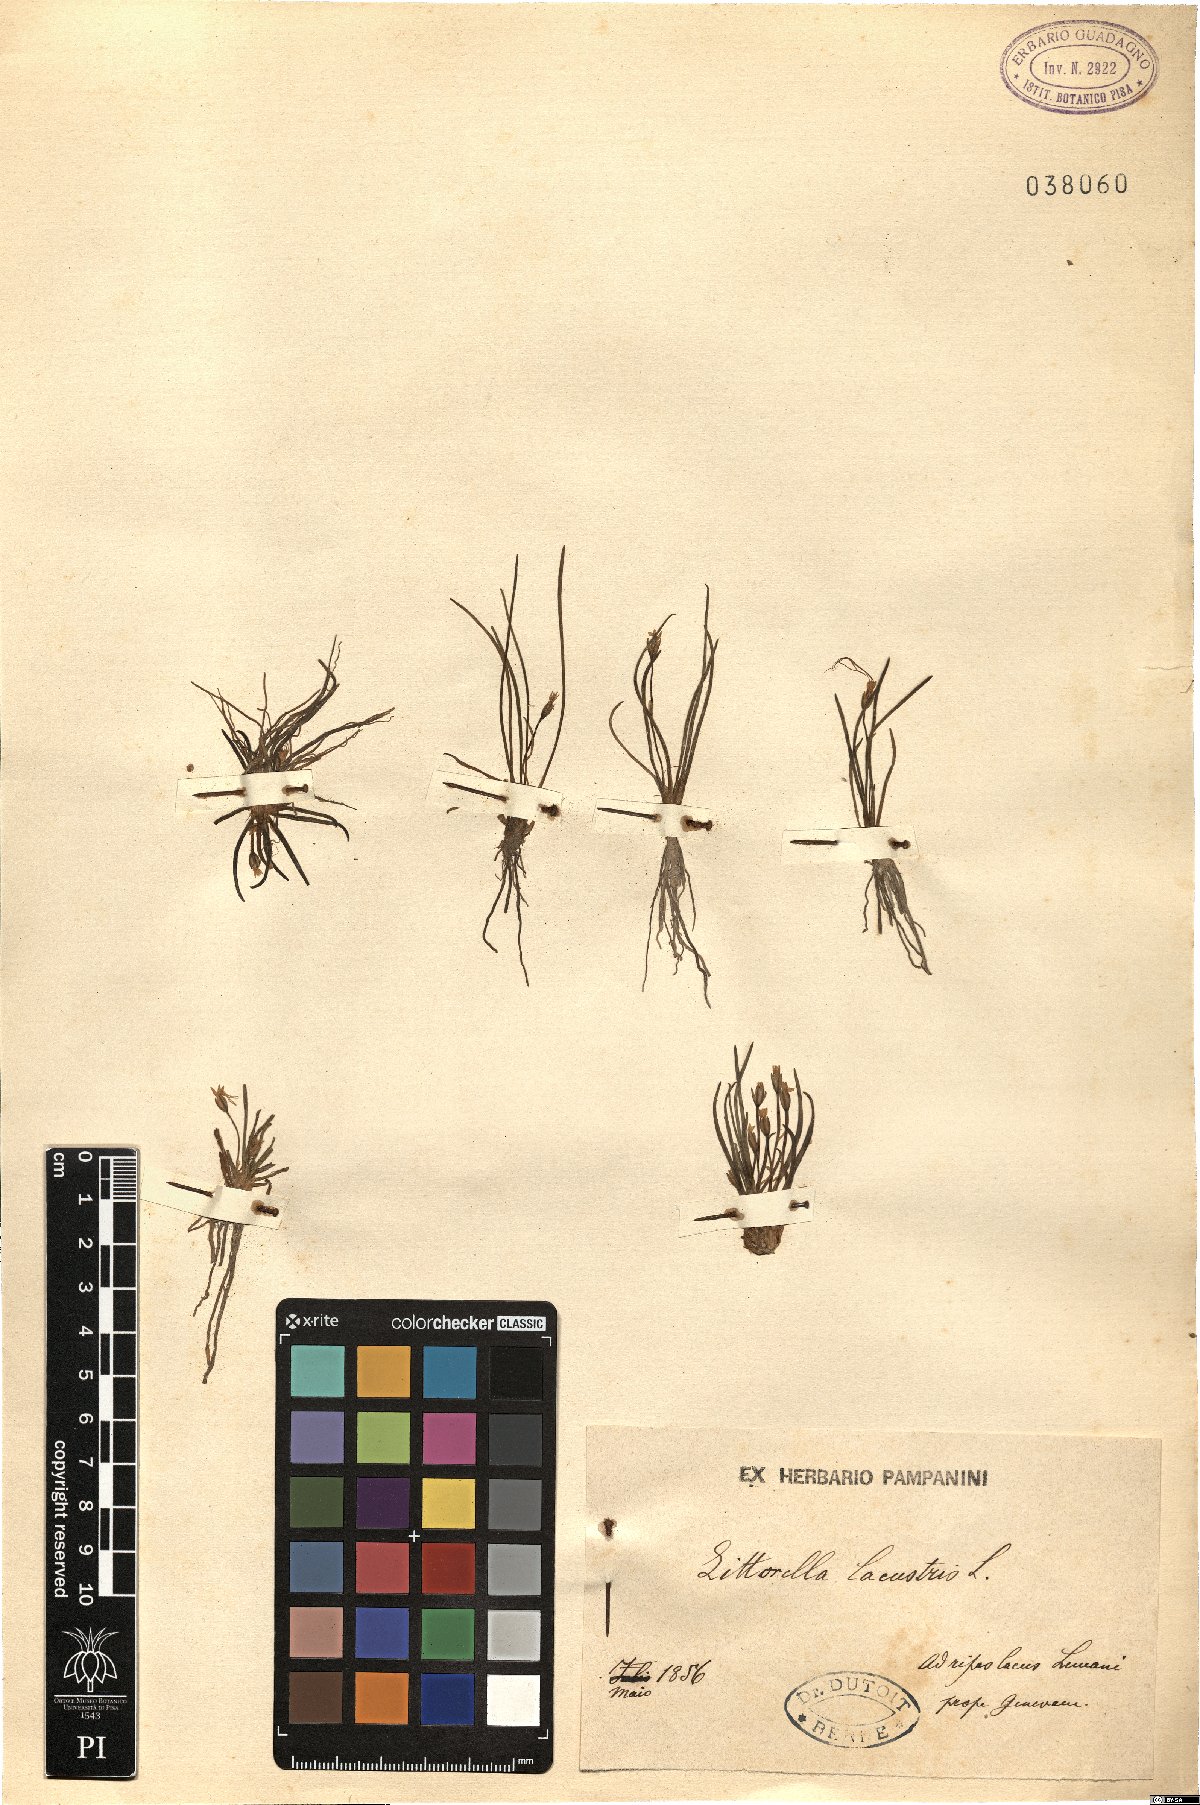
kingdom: Plantae
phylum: Tracheophyta
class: Magnoliopsida
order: Lamiales
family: Plantaginaceae
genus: Littorella
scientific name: Littorella uniflora
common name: Shoreweed
